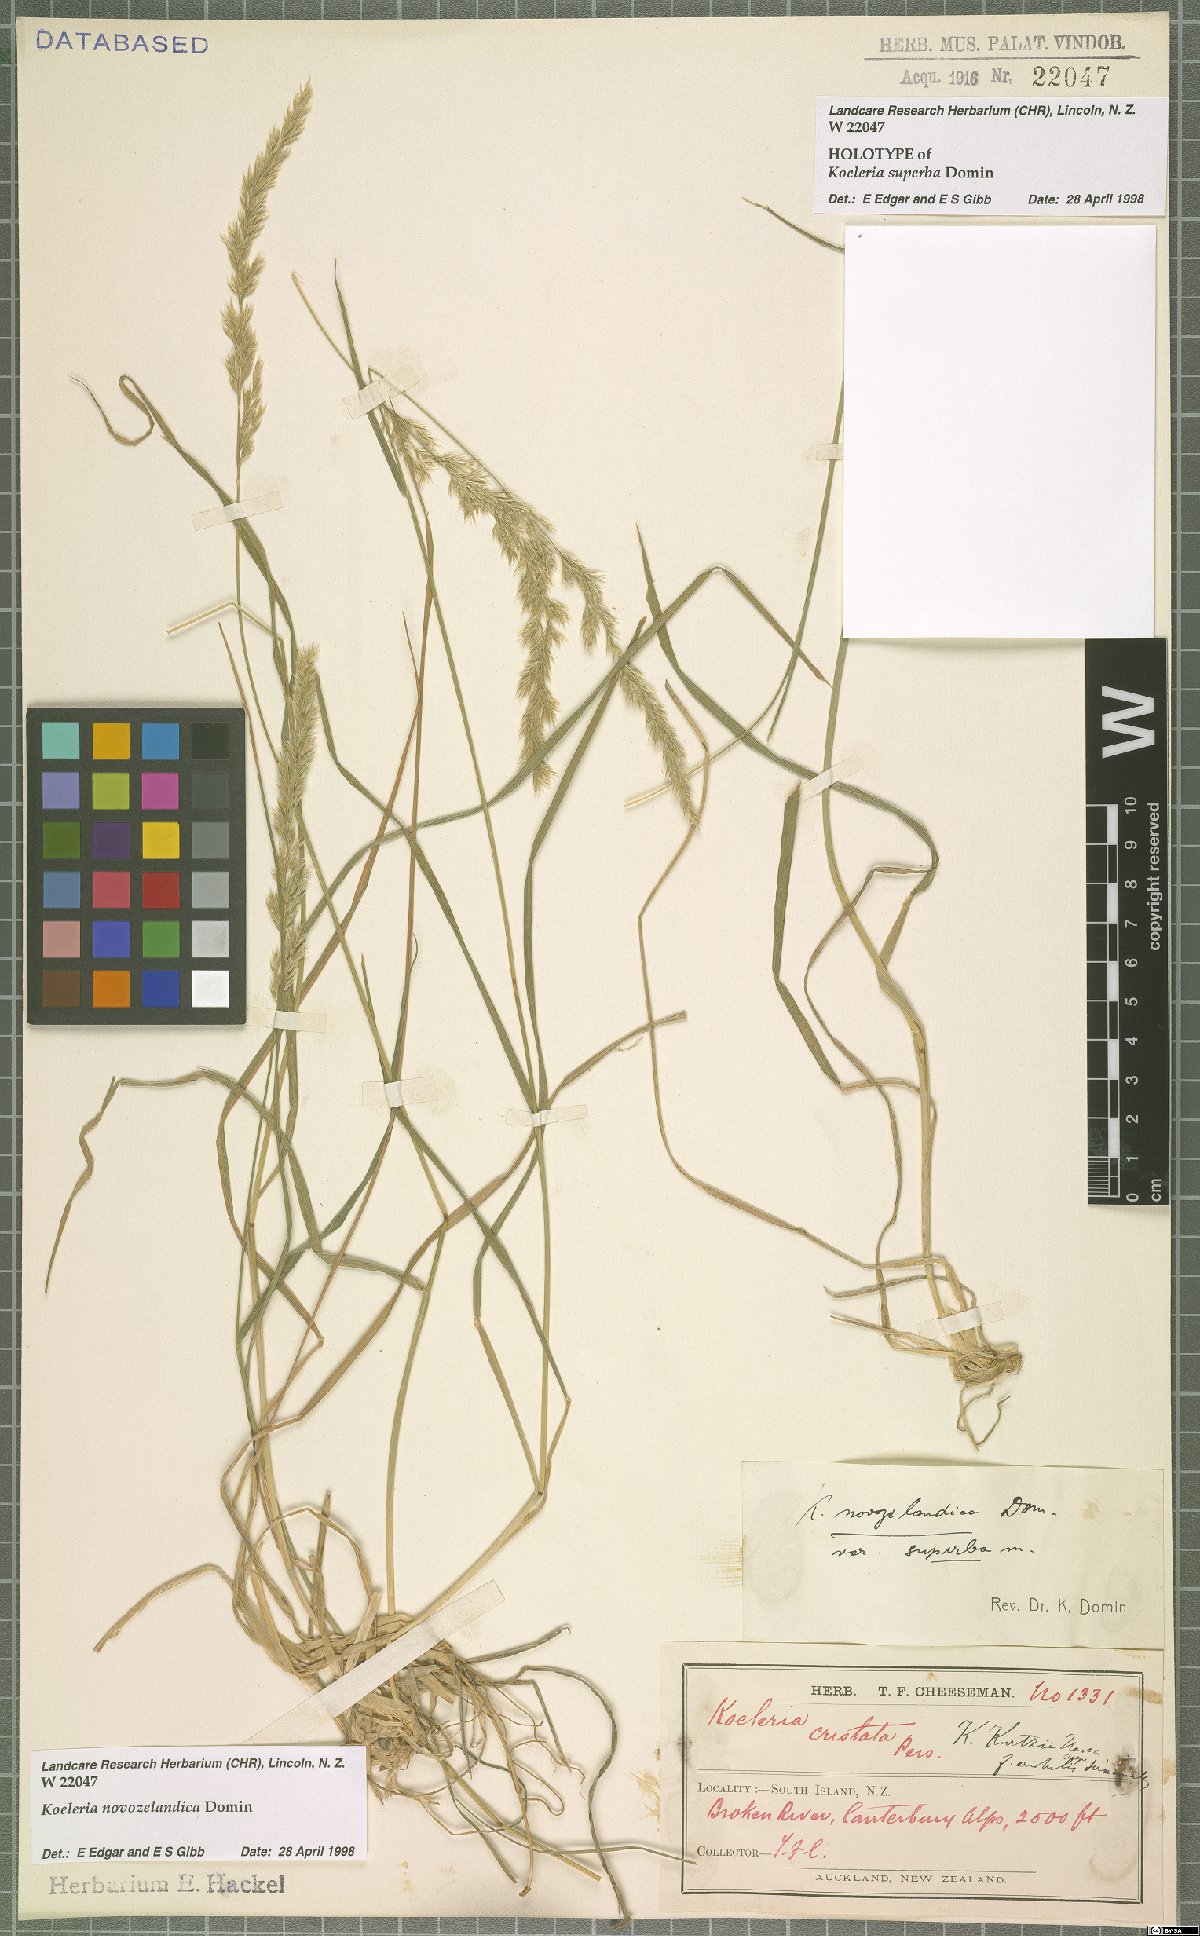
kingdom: Plantae
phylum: Tracheophyta
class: Liliopsida
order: Poales
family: Poaceae
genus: Koeleria
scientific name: Koeleria novozelandica
